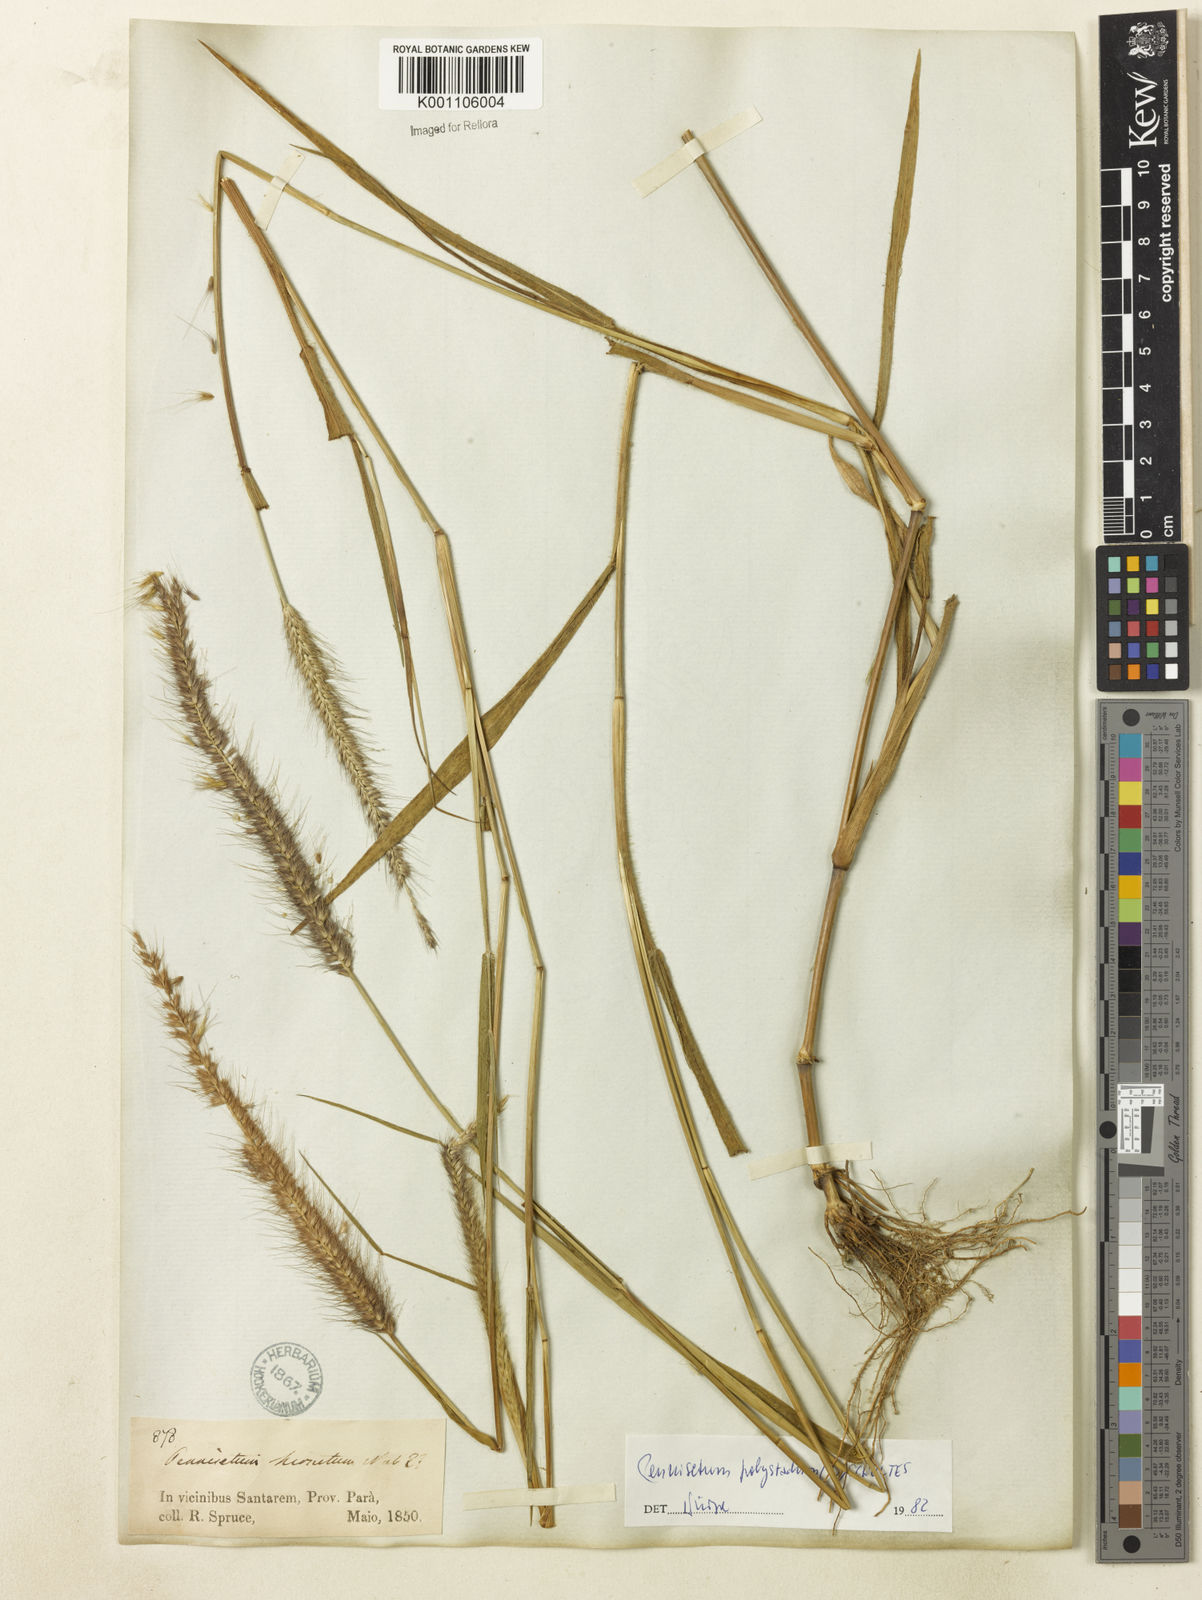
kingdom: Plantae
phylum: Tracheophyta
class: Liliopsida
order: Poales
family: Poaceae
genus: Setaria
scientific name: Setaria parviflora
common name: Knotroot bristle-grass
